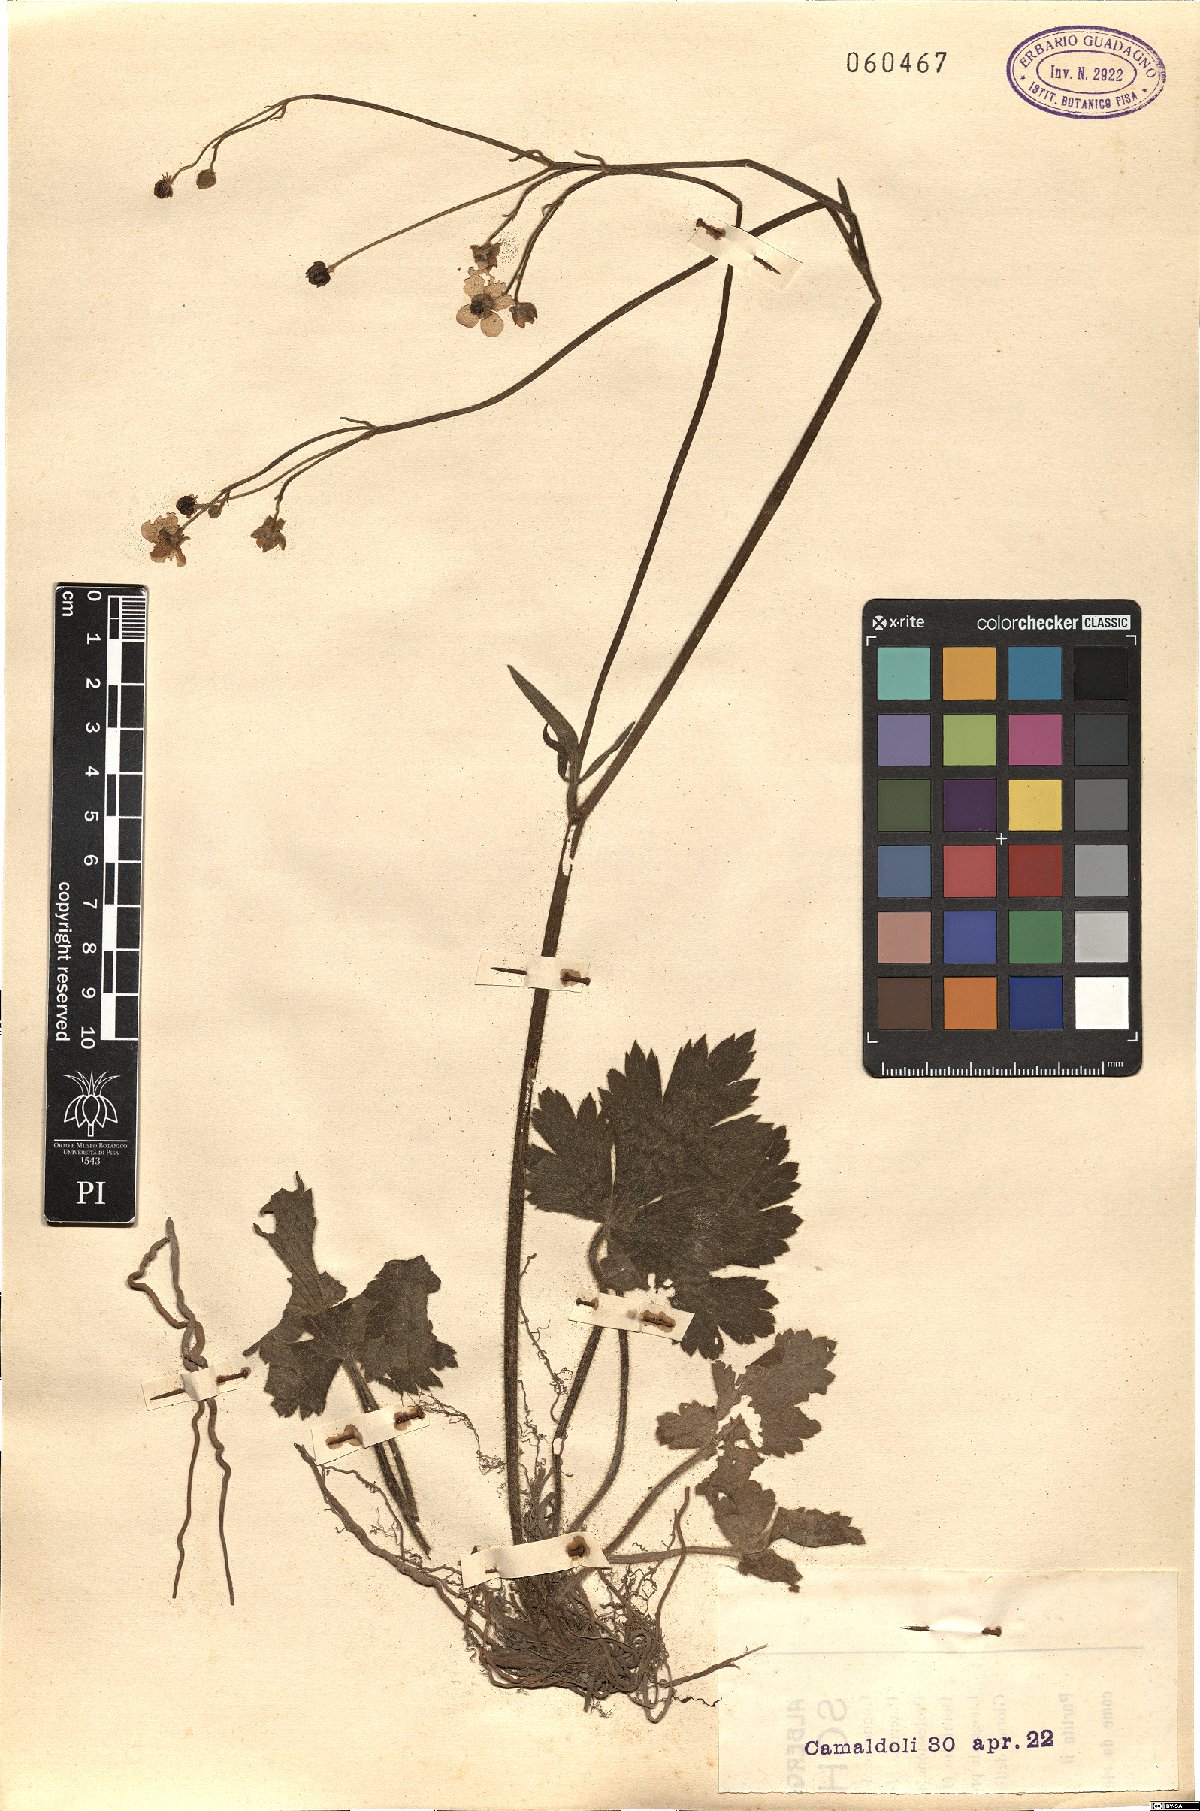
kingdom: Plantae
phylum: Tracheophyta
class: Magnoliopsida
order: Asterales
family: Asteraceae
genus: Taraxacum
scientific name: Taraxacum
